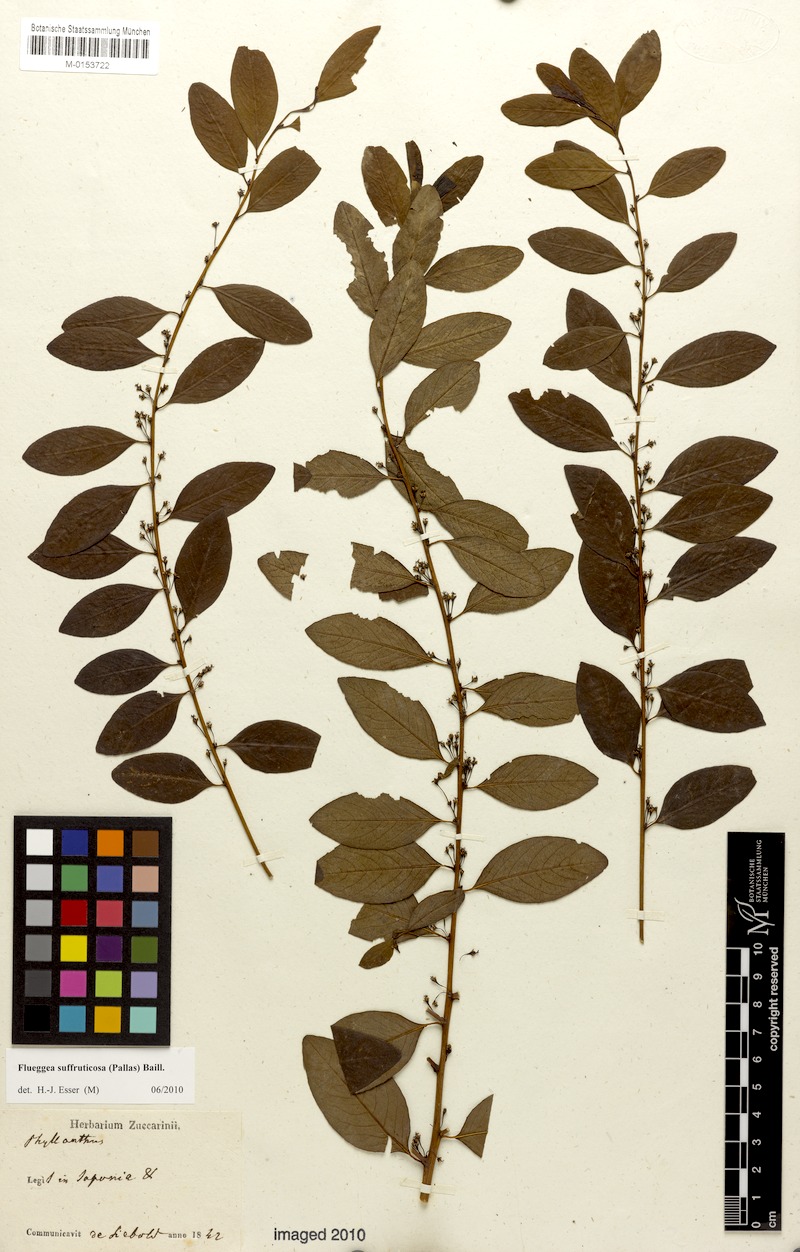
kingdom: Plantae
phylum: Tracheophyta
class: Magnoliopsida
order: Malpighiales
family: Phyllanthaceae
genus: Flueggea
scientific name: Flueggea suffruticosa
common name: Arching bushweed
